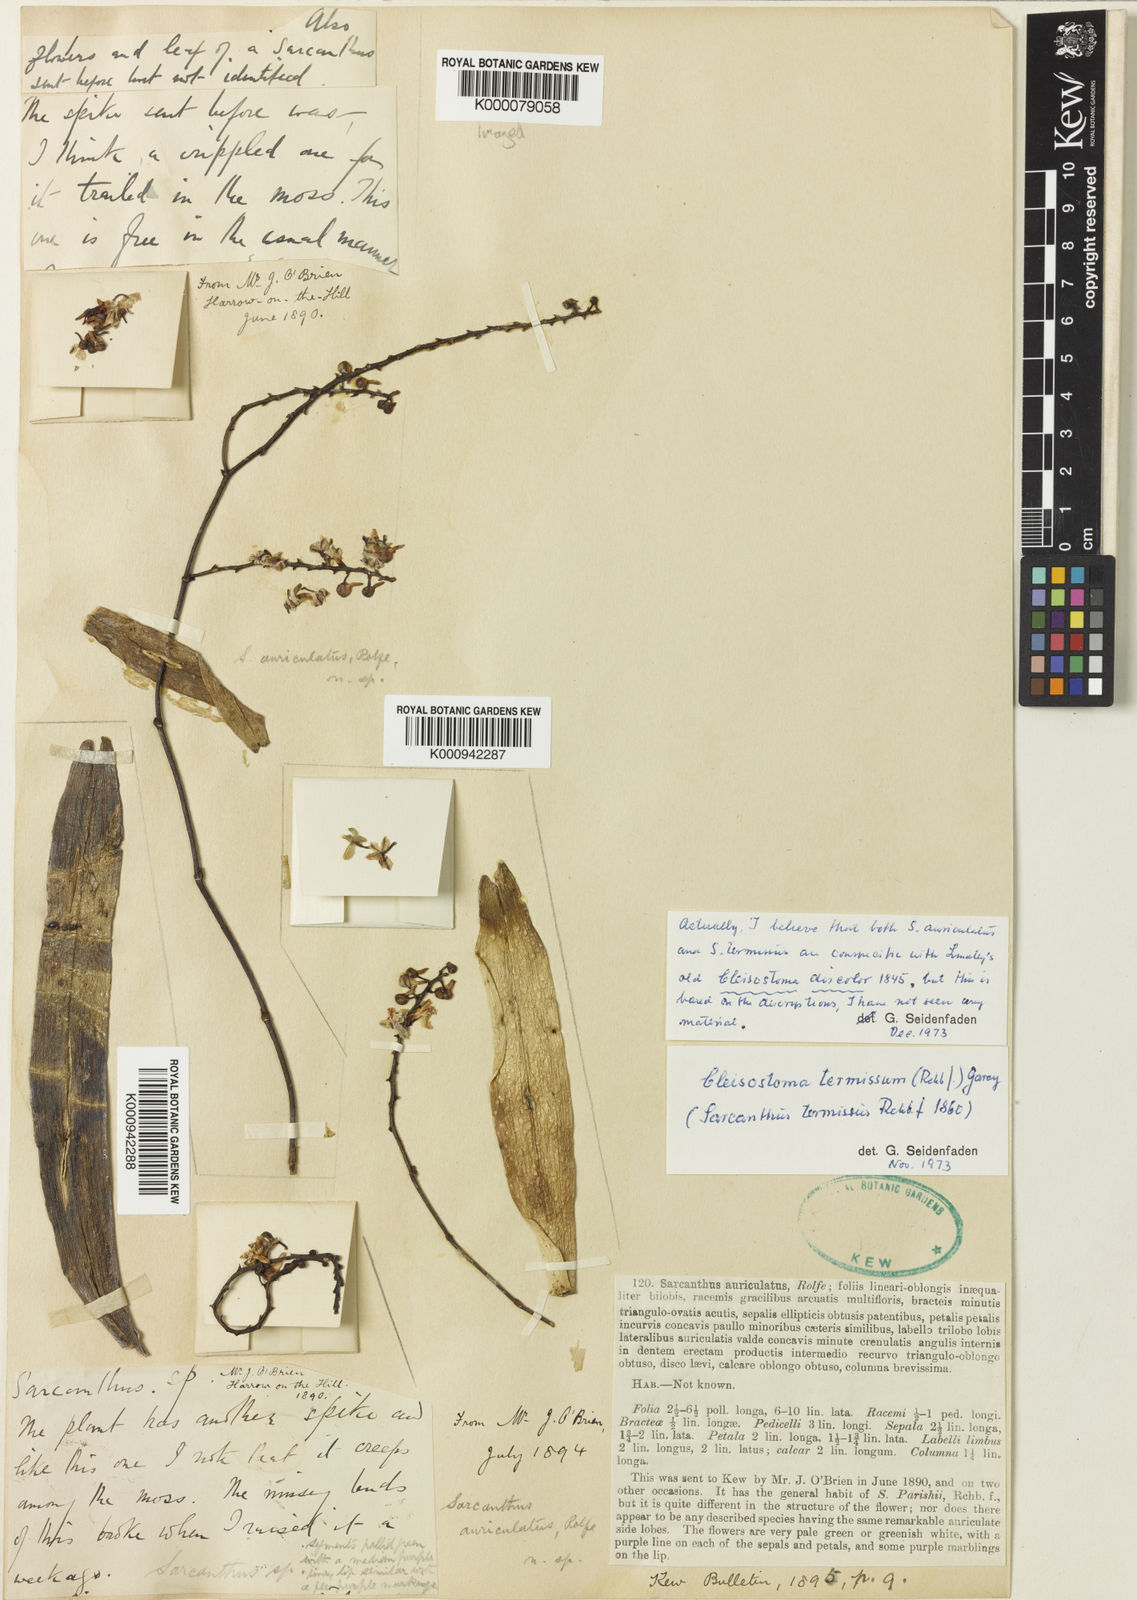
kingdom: Plantae
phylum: Tracheophyta
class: Liliopsida
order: Asparagales
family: Orchidaceae
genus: Cleisostoma
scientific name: Cleisostoma discolor
